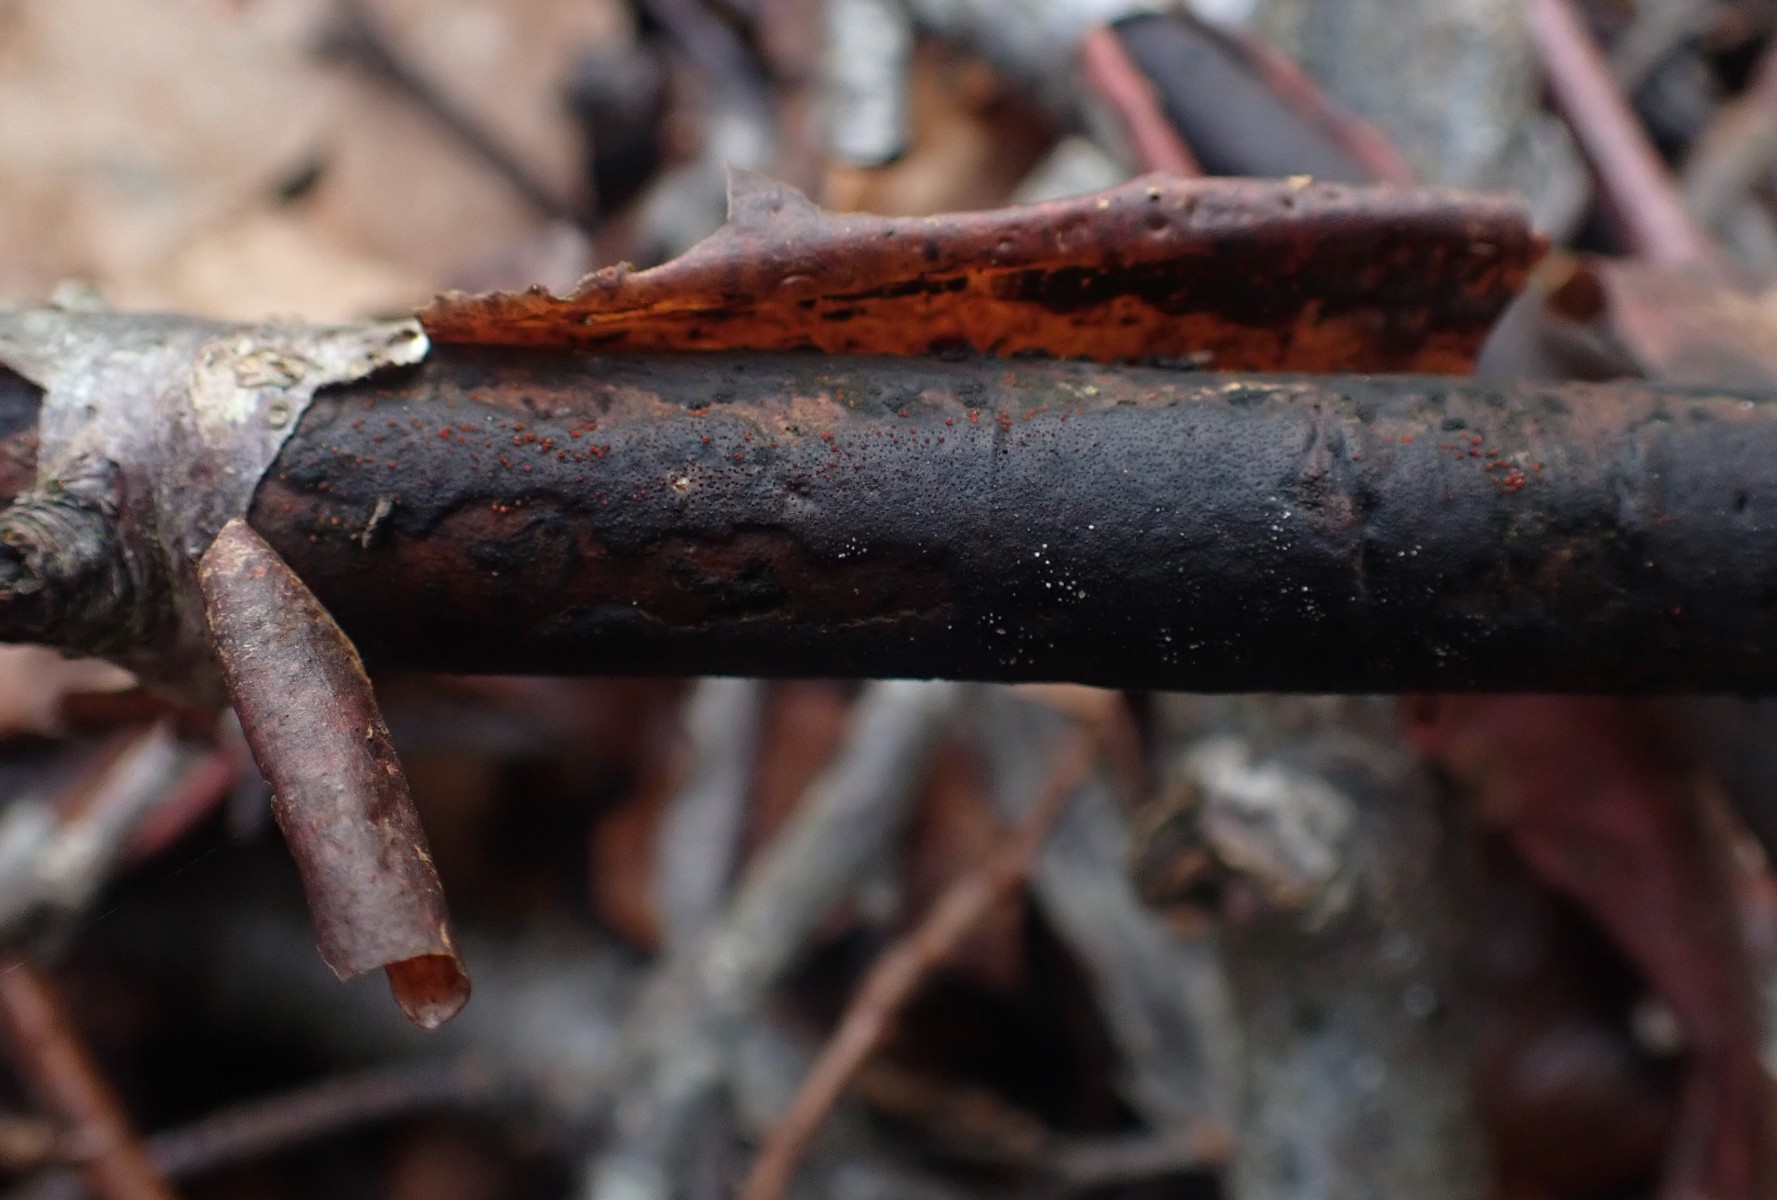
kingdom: Fungi
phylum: Ascomycota
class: Sordariomycetes
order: Xylariales
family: Diatrypaceae
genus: Diatrype
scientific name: Diatrype decorticata
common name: barksprænger-kulskorpe
